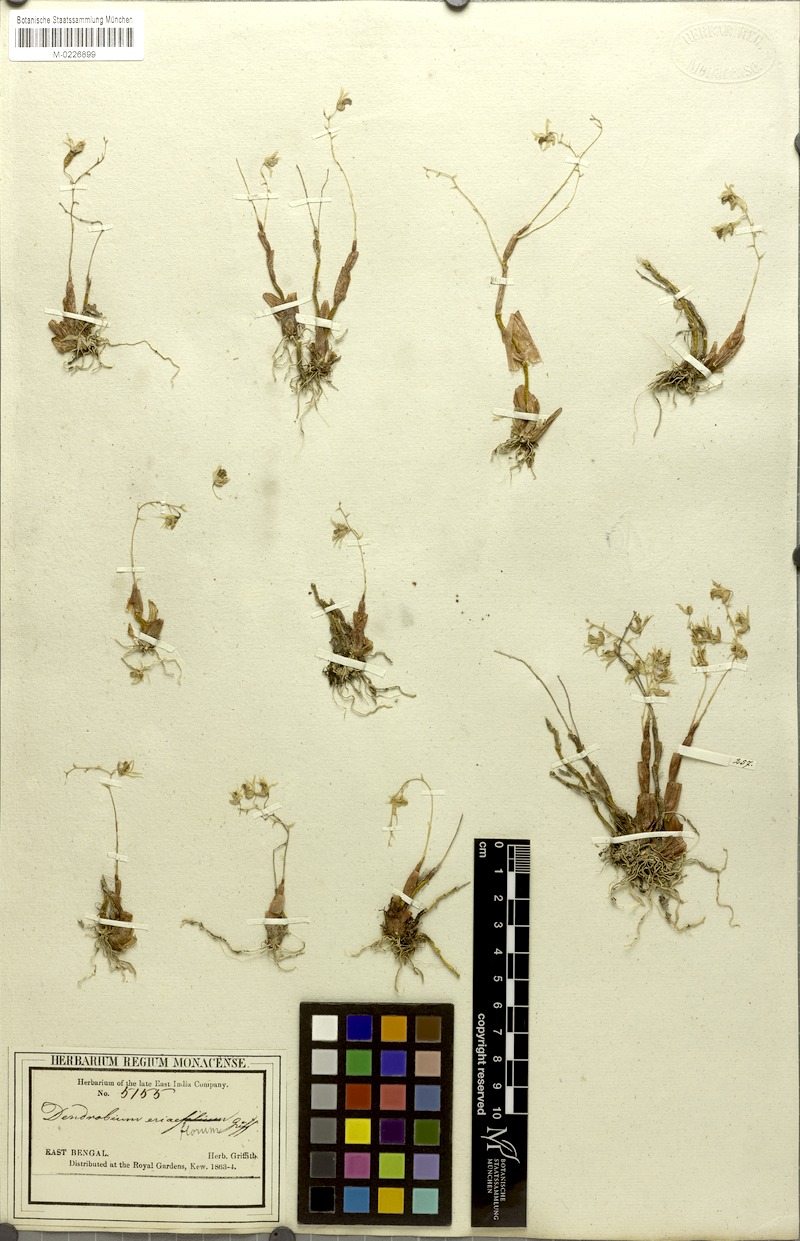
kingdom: Plantae
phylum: Tracheophyta
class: Liliopsida
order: Asparagales
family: Orchidaceae
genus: Dendrobium
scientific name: Dendrobium eriiflorum
